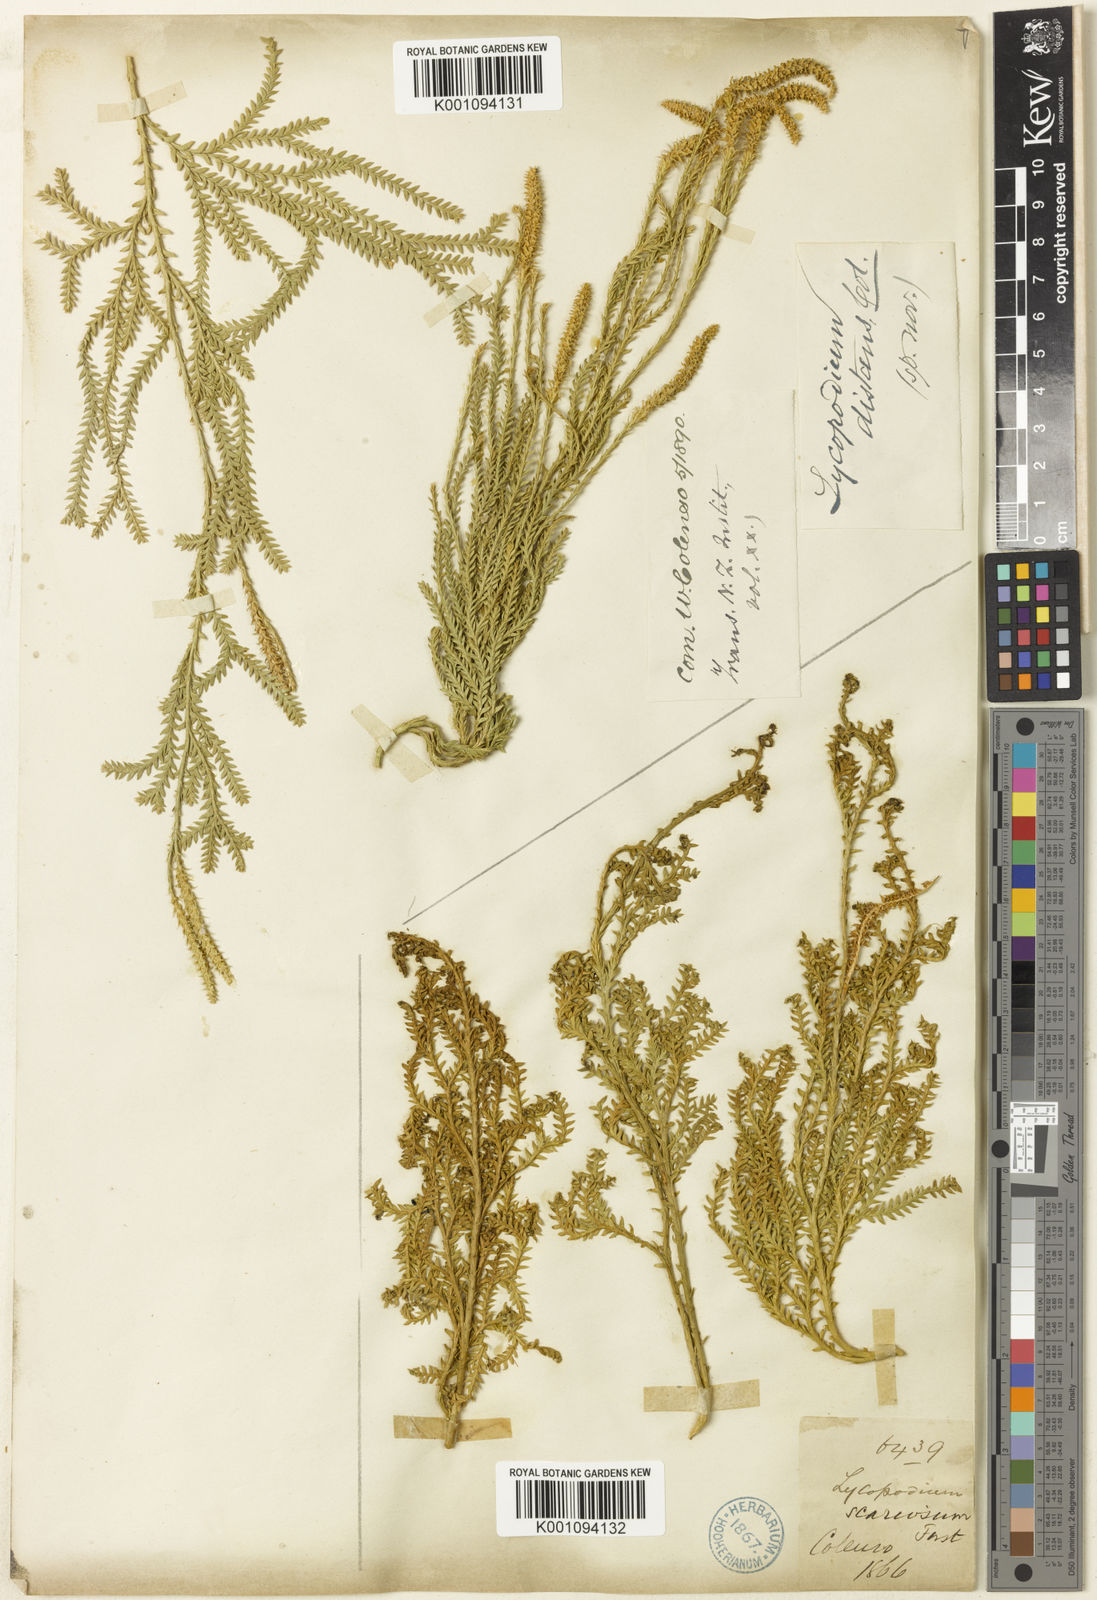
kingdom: Plantae
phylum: Tracheophyta
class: Lycopodiopsida
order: Lycopodiales
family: Lycopodiaceae
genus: Diphasium
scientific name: Diphasium scariosum
